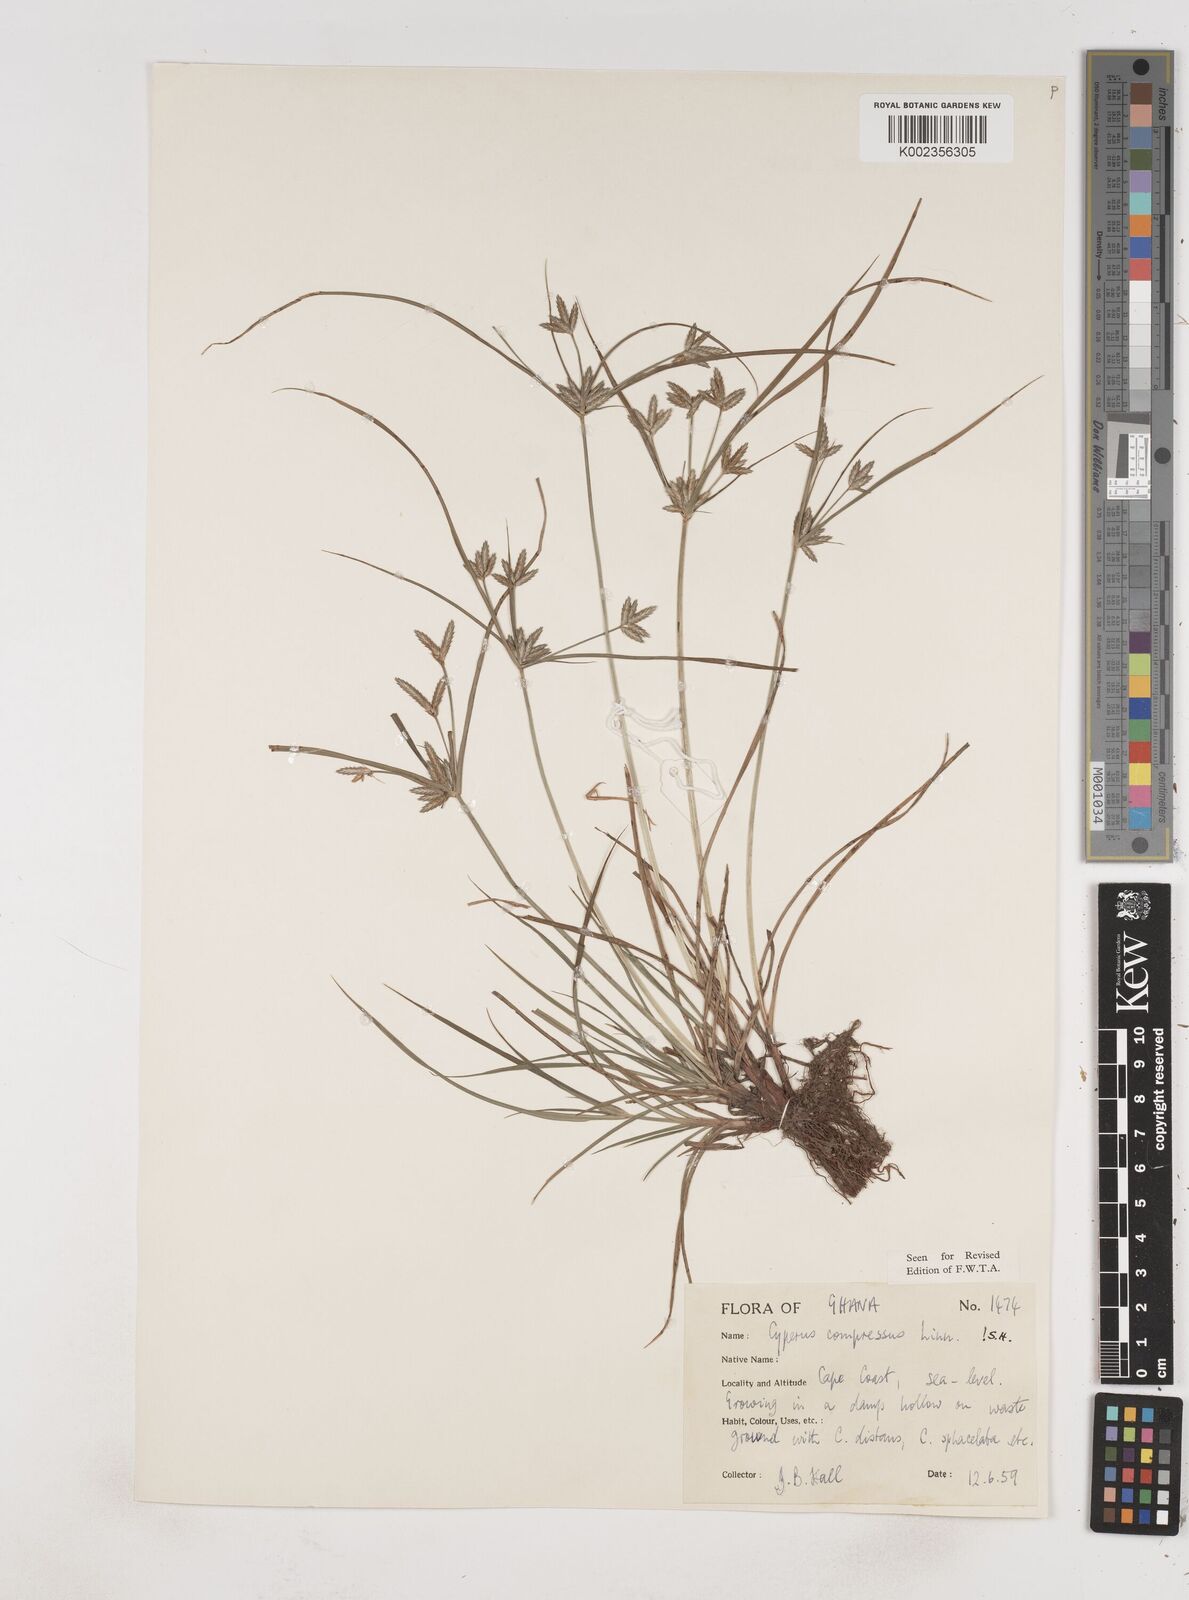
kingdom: Plantae
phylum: Tracheophyta
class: Liliopsida
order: Poales
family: Cyperaceae
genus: Cyperus
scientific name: Cyperus compressus
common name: Poorland flatsedge
